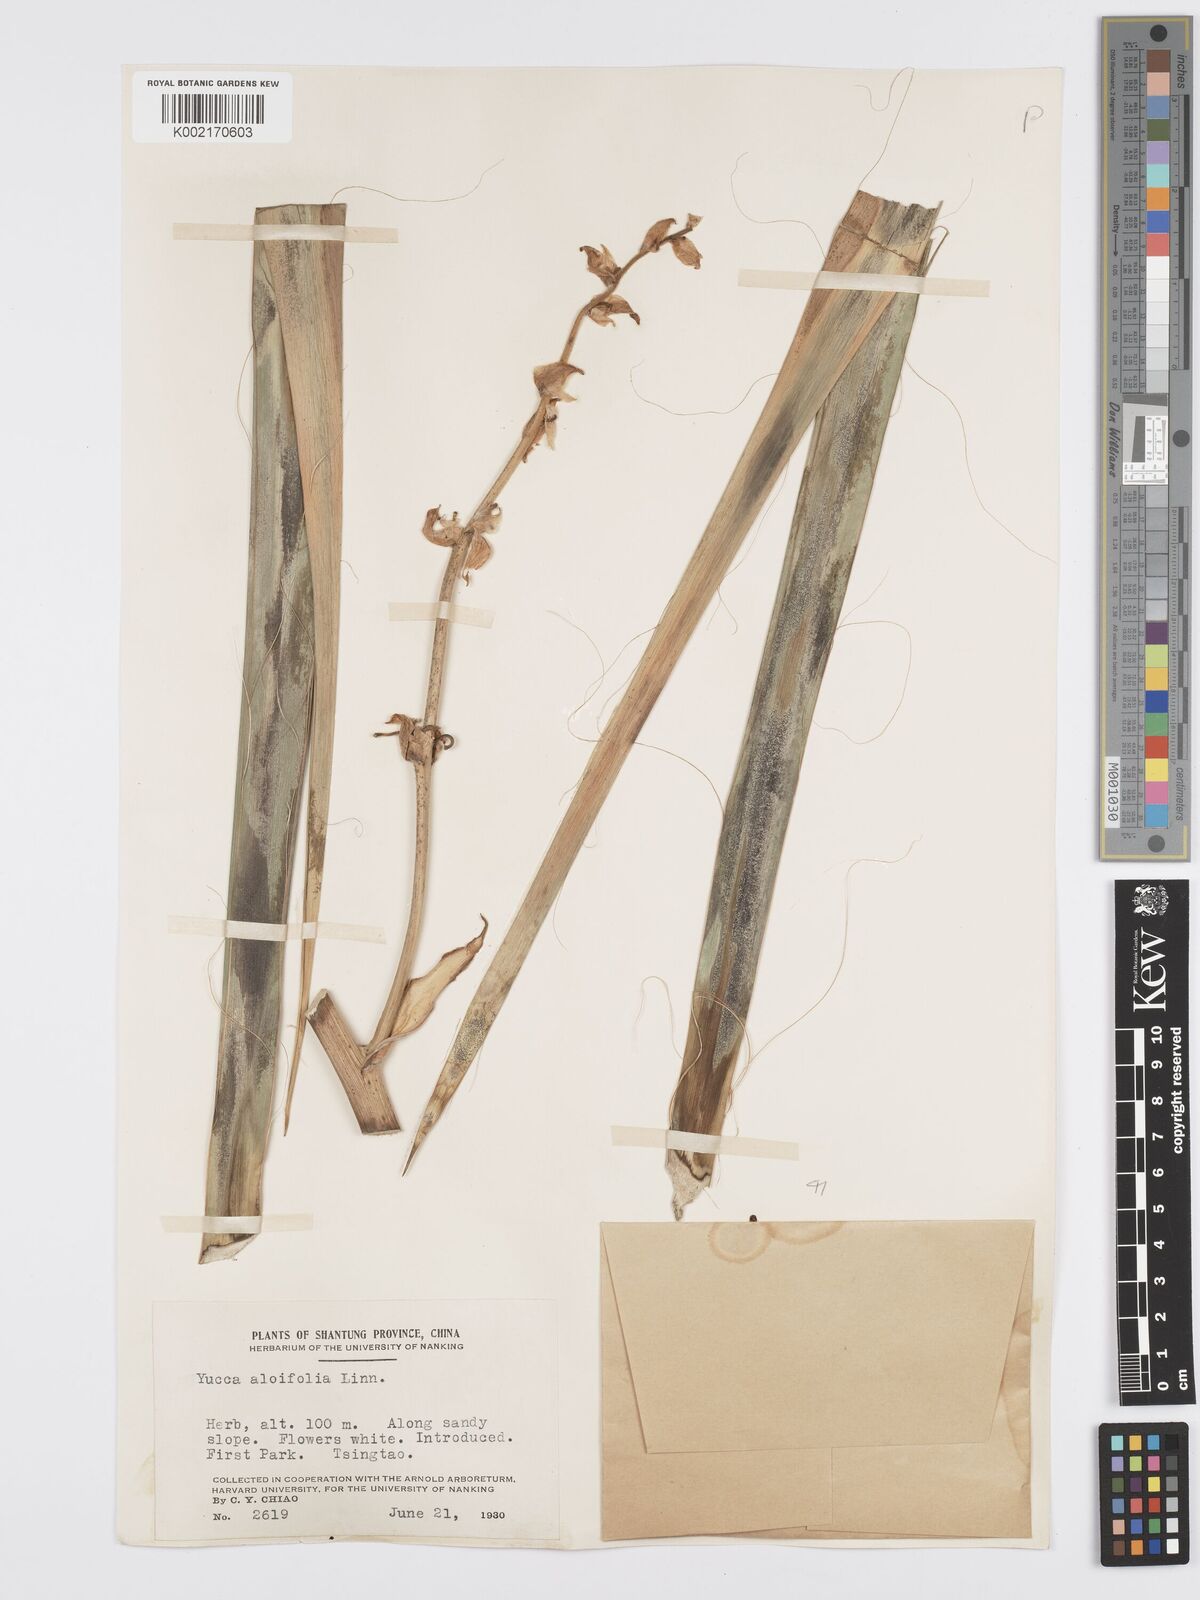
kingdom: Plantae
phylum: Tracheophyta
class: Liliopsida
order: Asparagales
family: Asparagaceae
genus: Yucca
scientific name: Yucca aloifolia
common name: Aloe yucca
